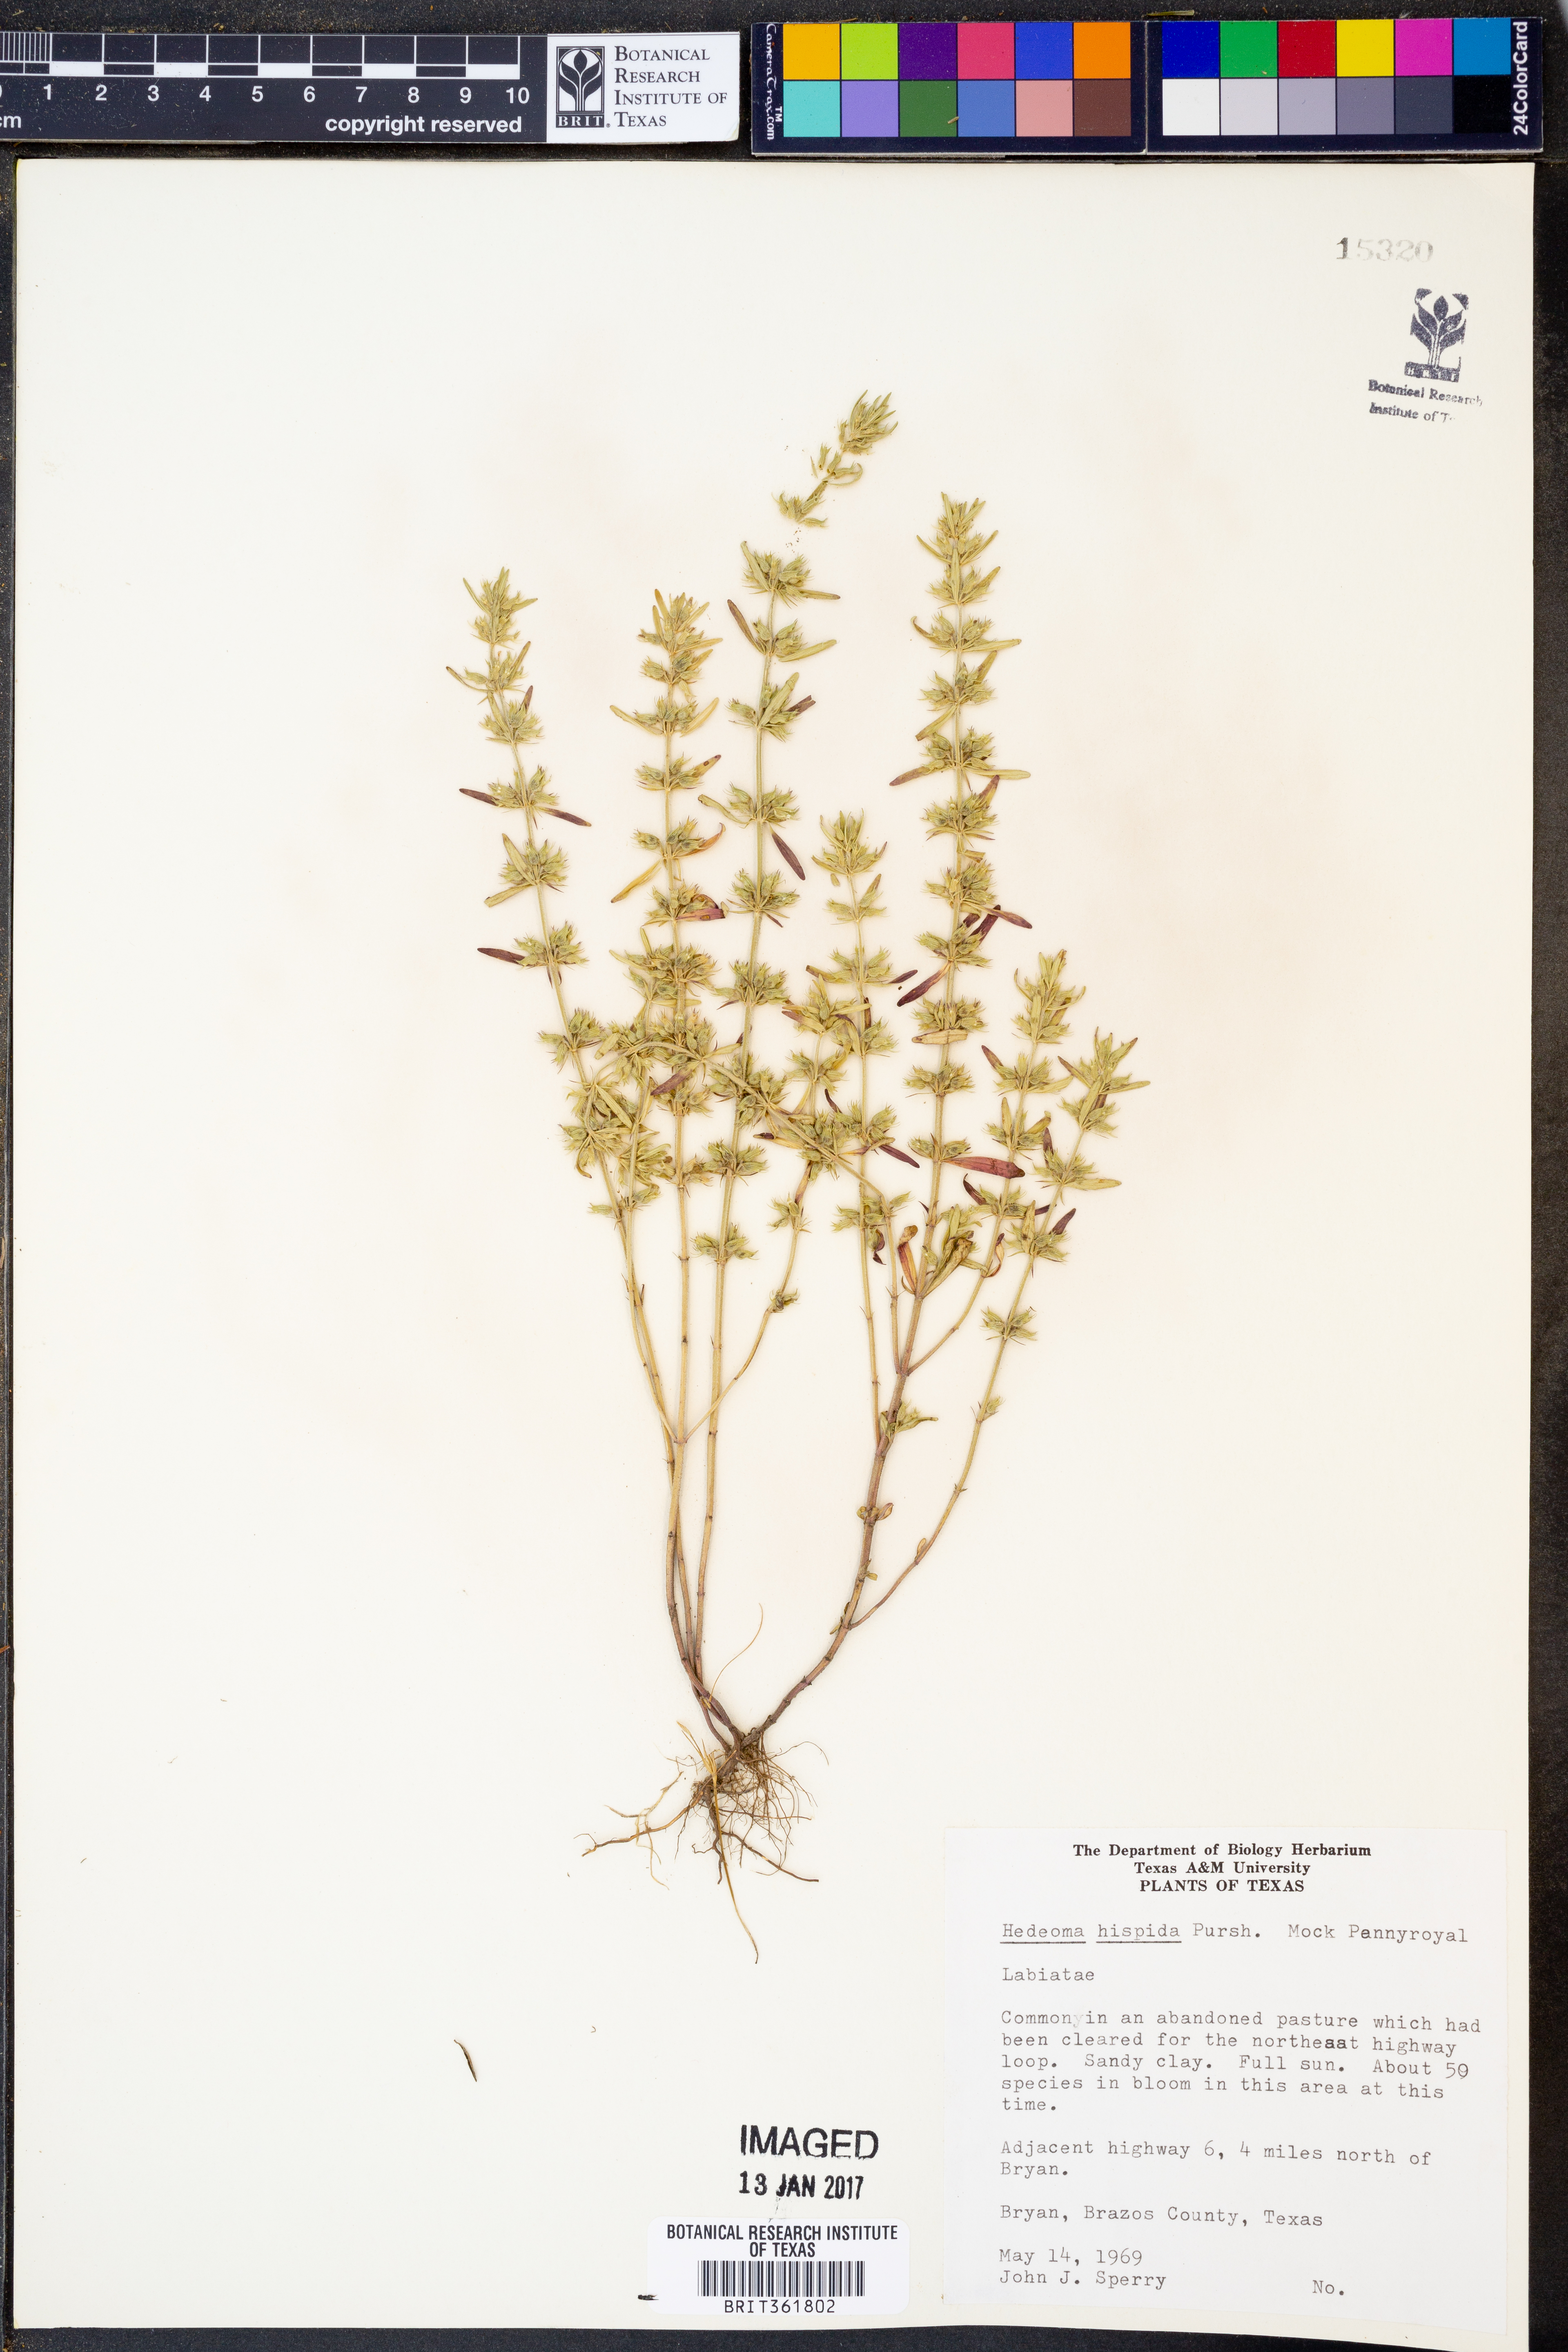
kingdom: Plantae
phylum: Tracheophyta
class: Magnoliopsida
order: Lamiales
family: Lamiaceae
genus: Hedeoma
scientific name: Hedeoma hispida
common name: Mock pennyroyal
